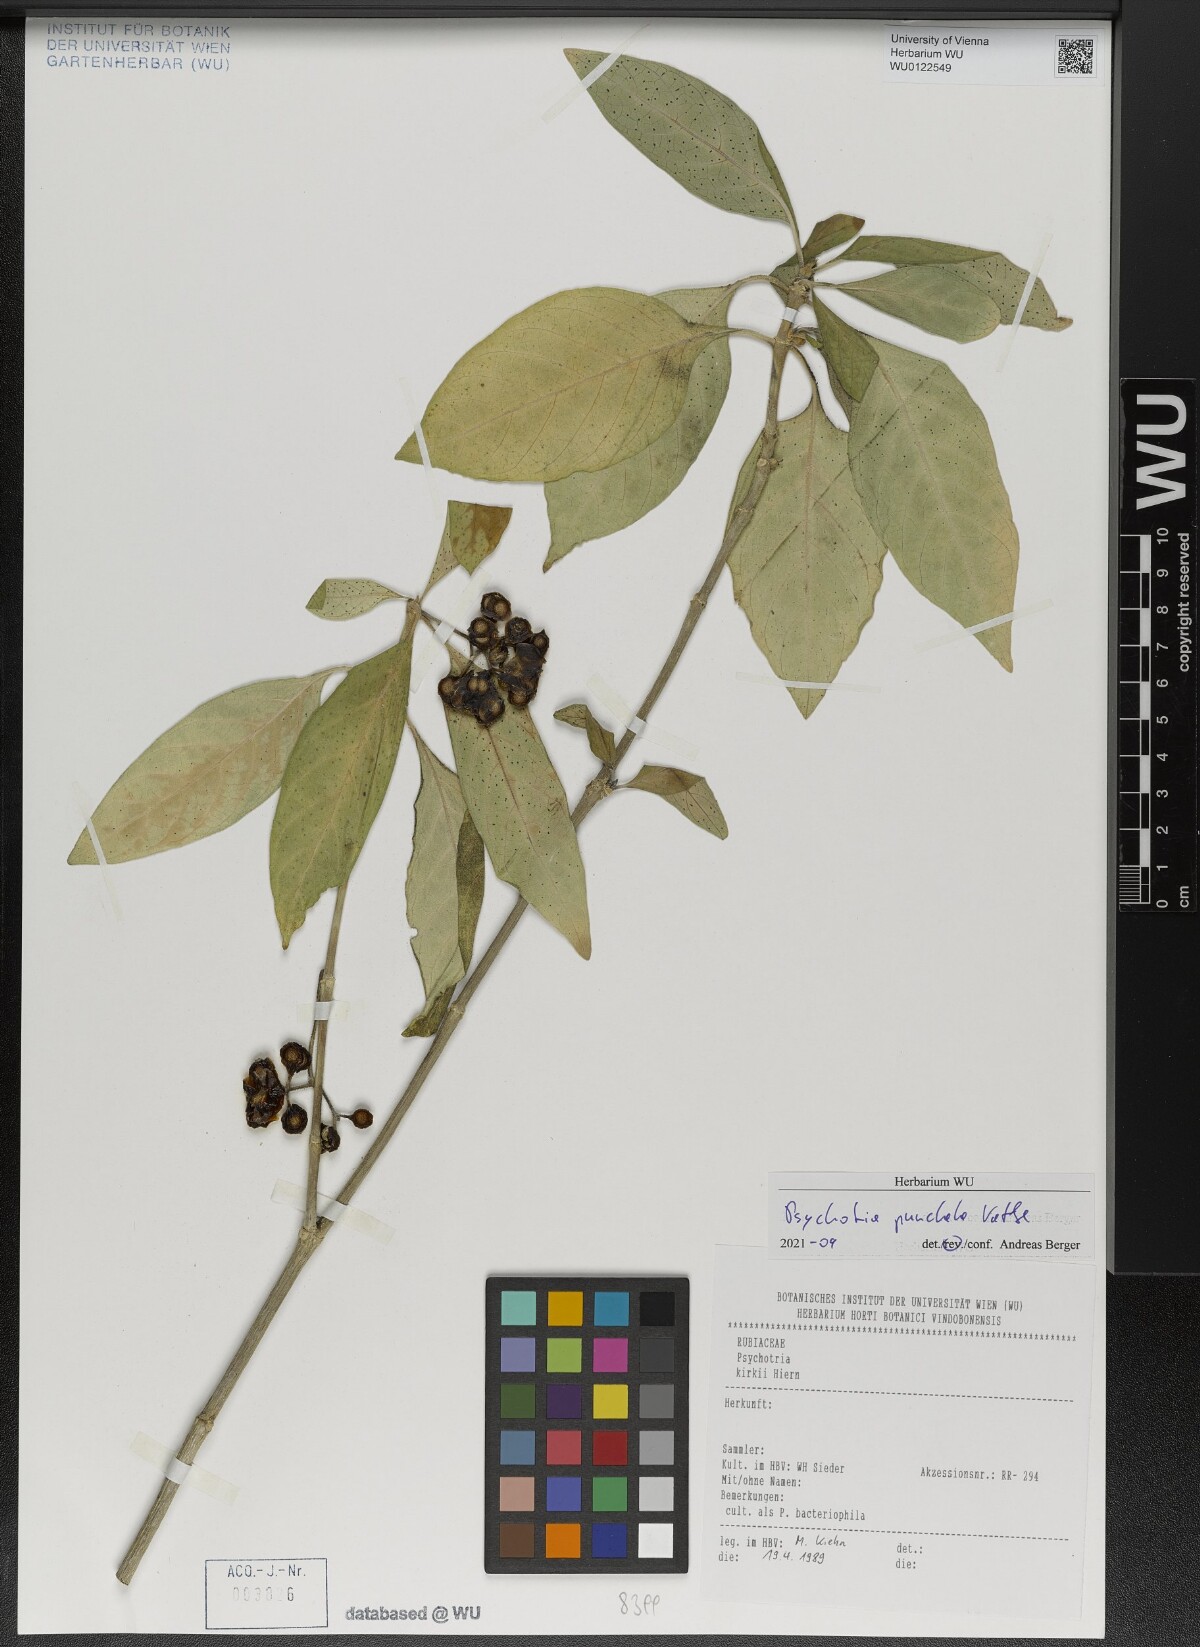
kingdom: Plantae
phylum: Tracheophyta
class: Magnoliopsida
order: Gentianales
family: Rubiaceae
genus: Psychotria
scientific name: Psychotria punctata
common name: Dotted wild coffee
